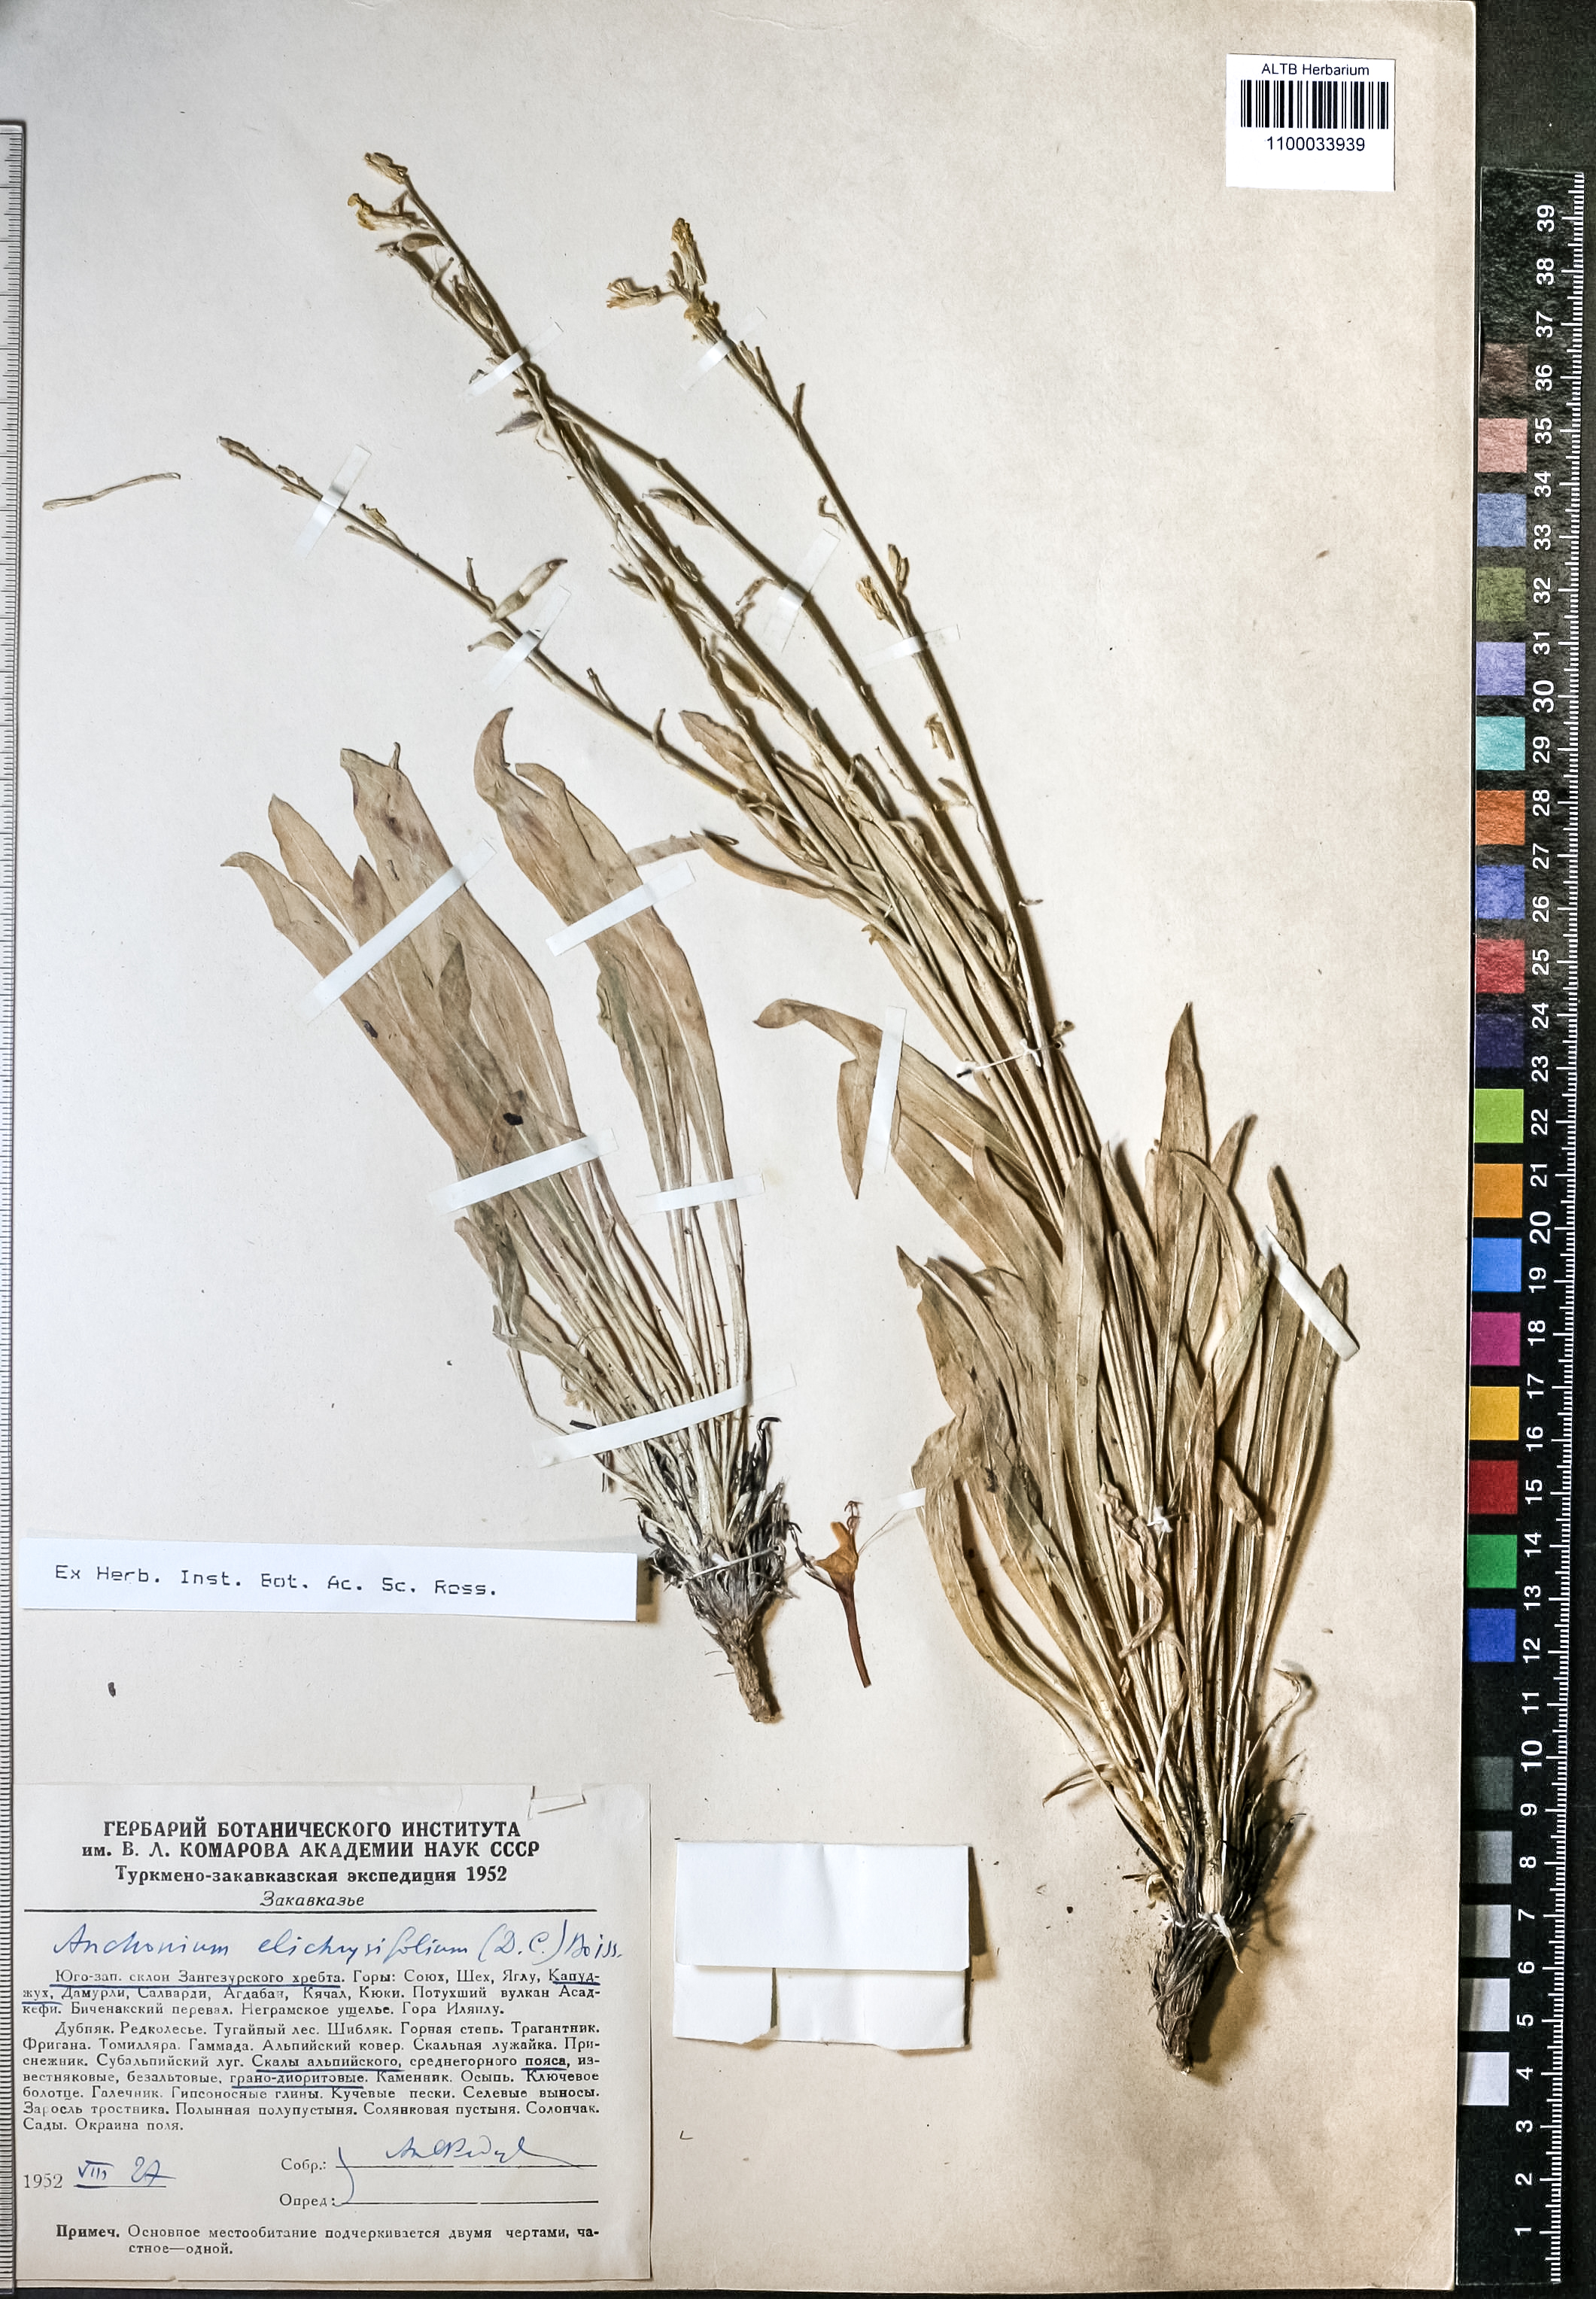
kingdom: Plantae
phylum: Tracheophyta
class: Magnoliopsida
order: Brassicales
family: Brassicaceae
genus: Anchonium
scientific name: Anchonium elichrysifolium
